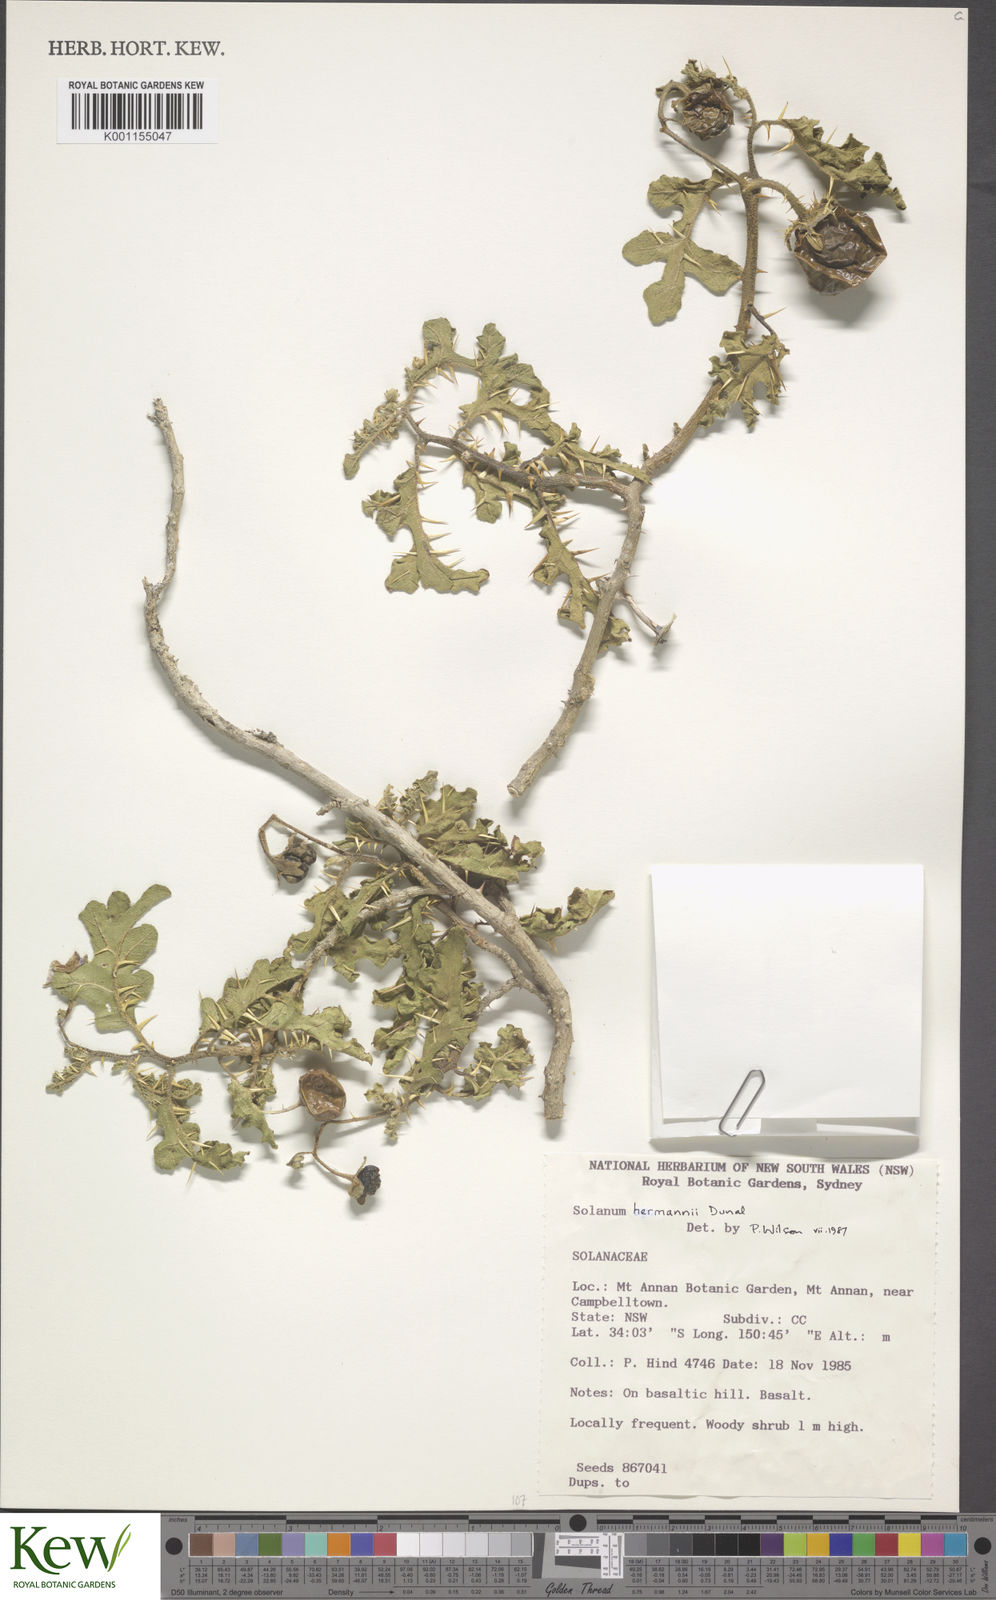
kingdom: Plantae
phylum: Tracheophyta
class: Magnoliopsida
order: Solanales
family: Solanaceae
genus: Solanum
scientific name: Solanum anguivi
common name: Forest bitterberry
